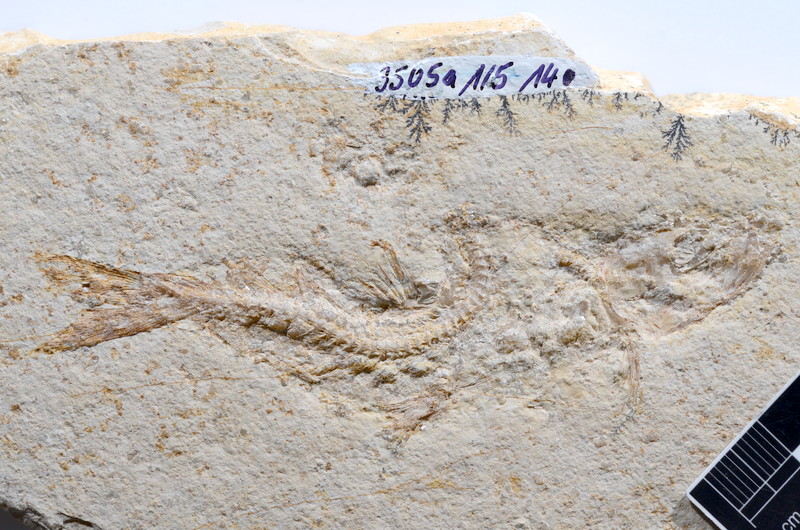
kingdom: Animalia
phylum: Chordata
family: Ascalaboidae
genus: Tharsis
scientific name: Tharsis dubius
